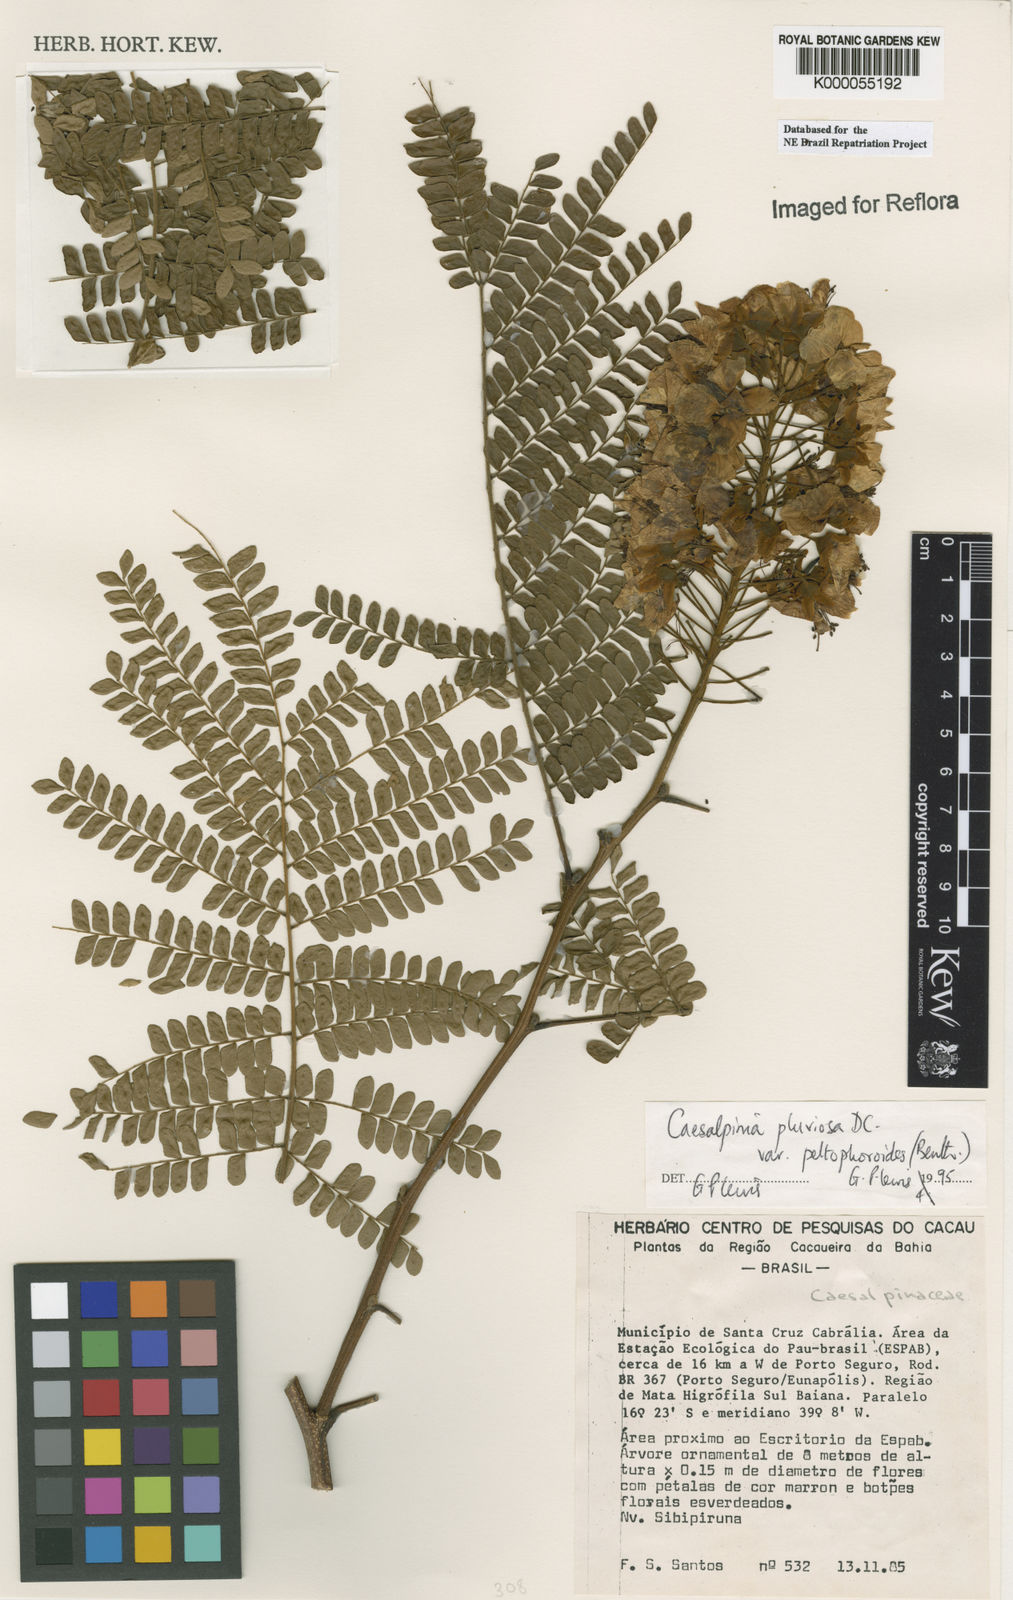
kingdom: Plantae
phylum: Tracheophyta
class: Magnoliopsida
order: Fabales
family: Fabaceae
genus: Cenostigma
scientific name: Cenostigma pluviosum
